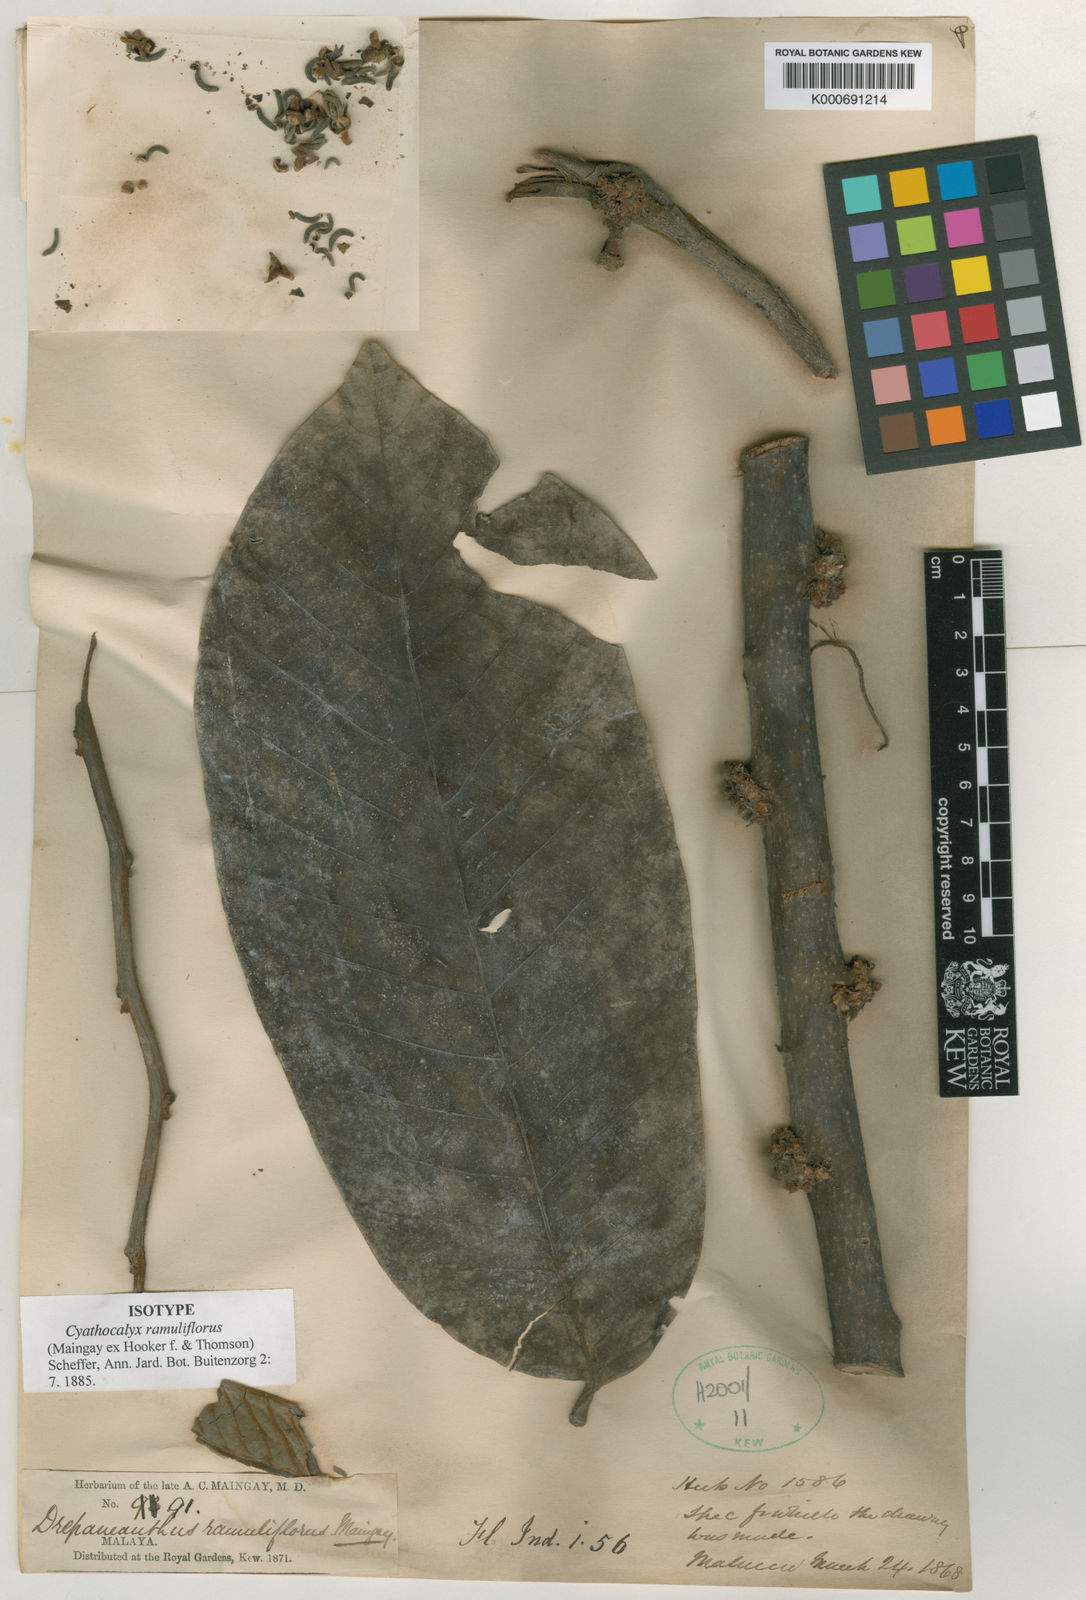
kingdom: Plantae
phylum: Tracheophyta
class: Magnoliopsida
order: Magnoliales
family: Annonaceae
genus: Drepananthus
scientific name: Drepananthus ramuliflorus
